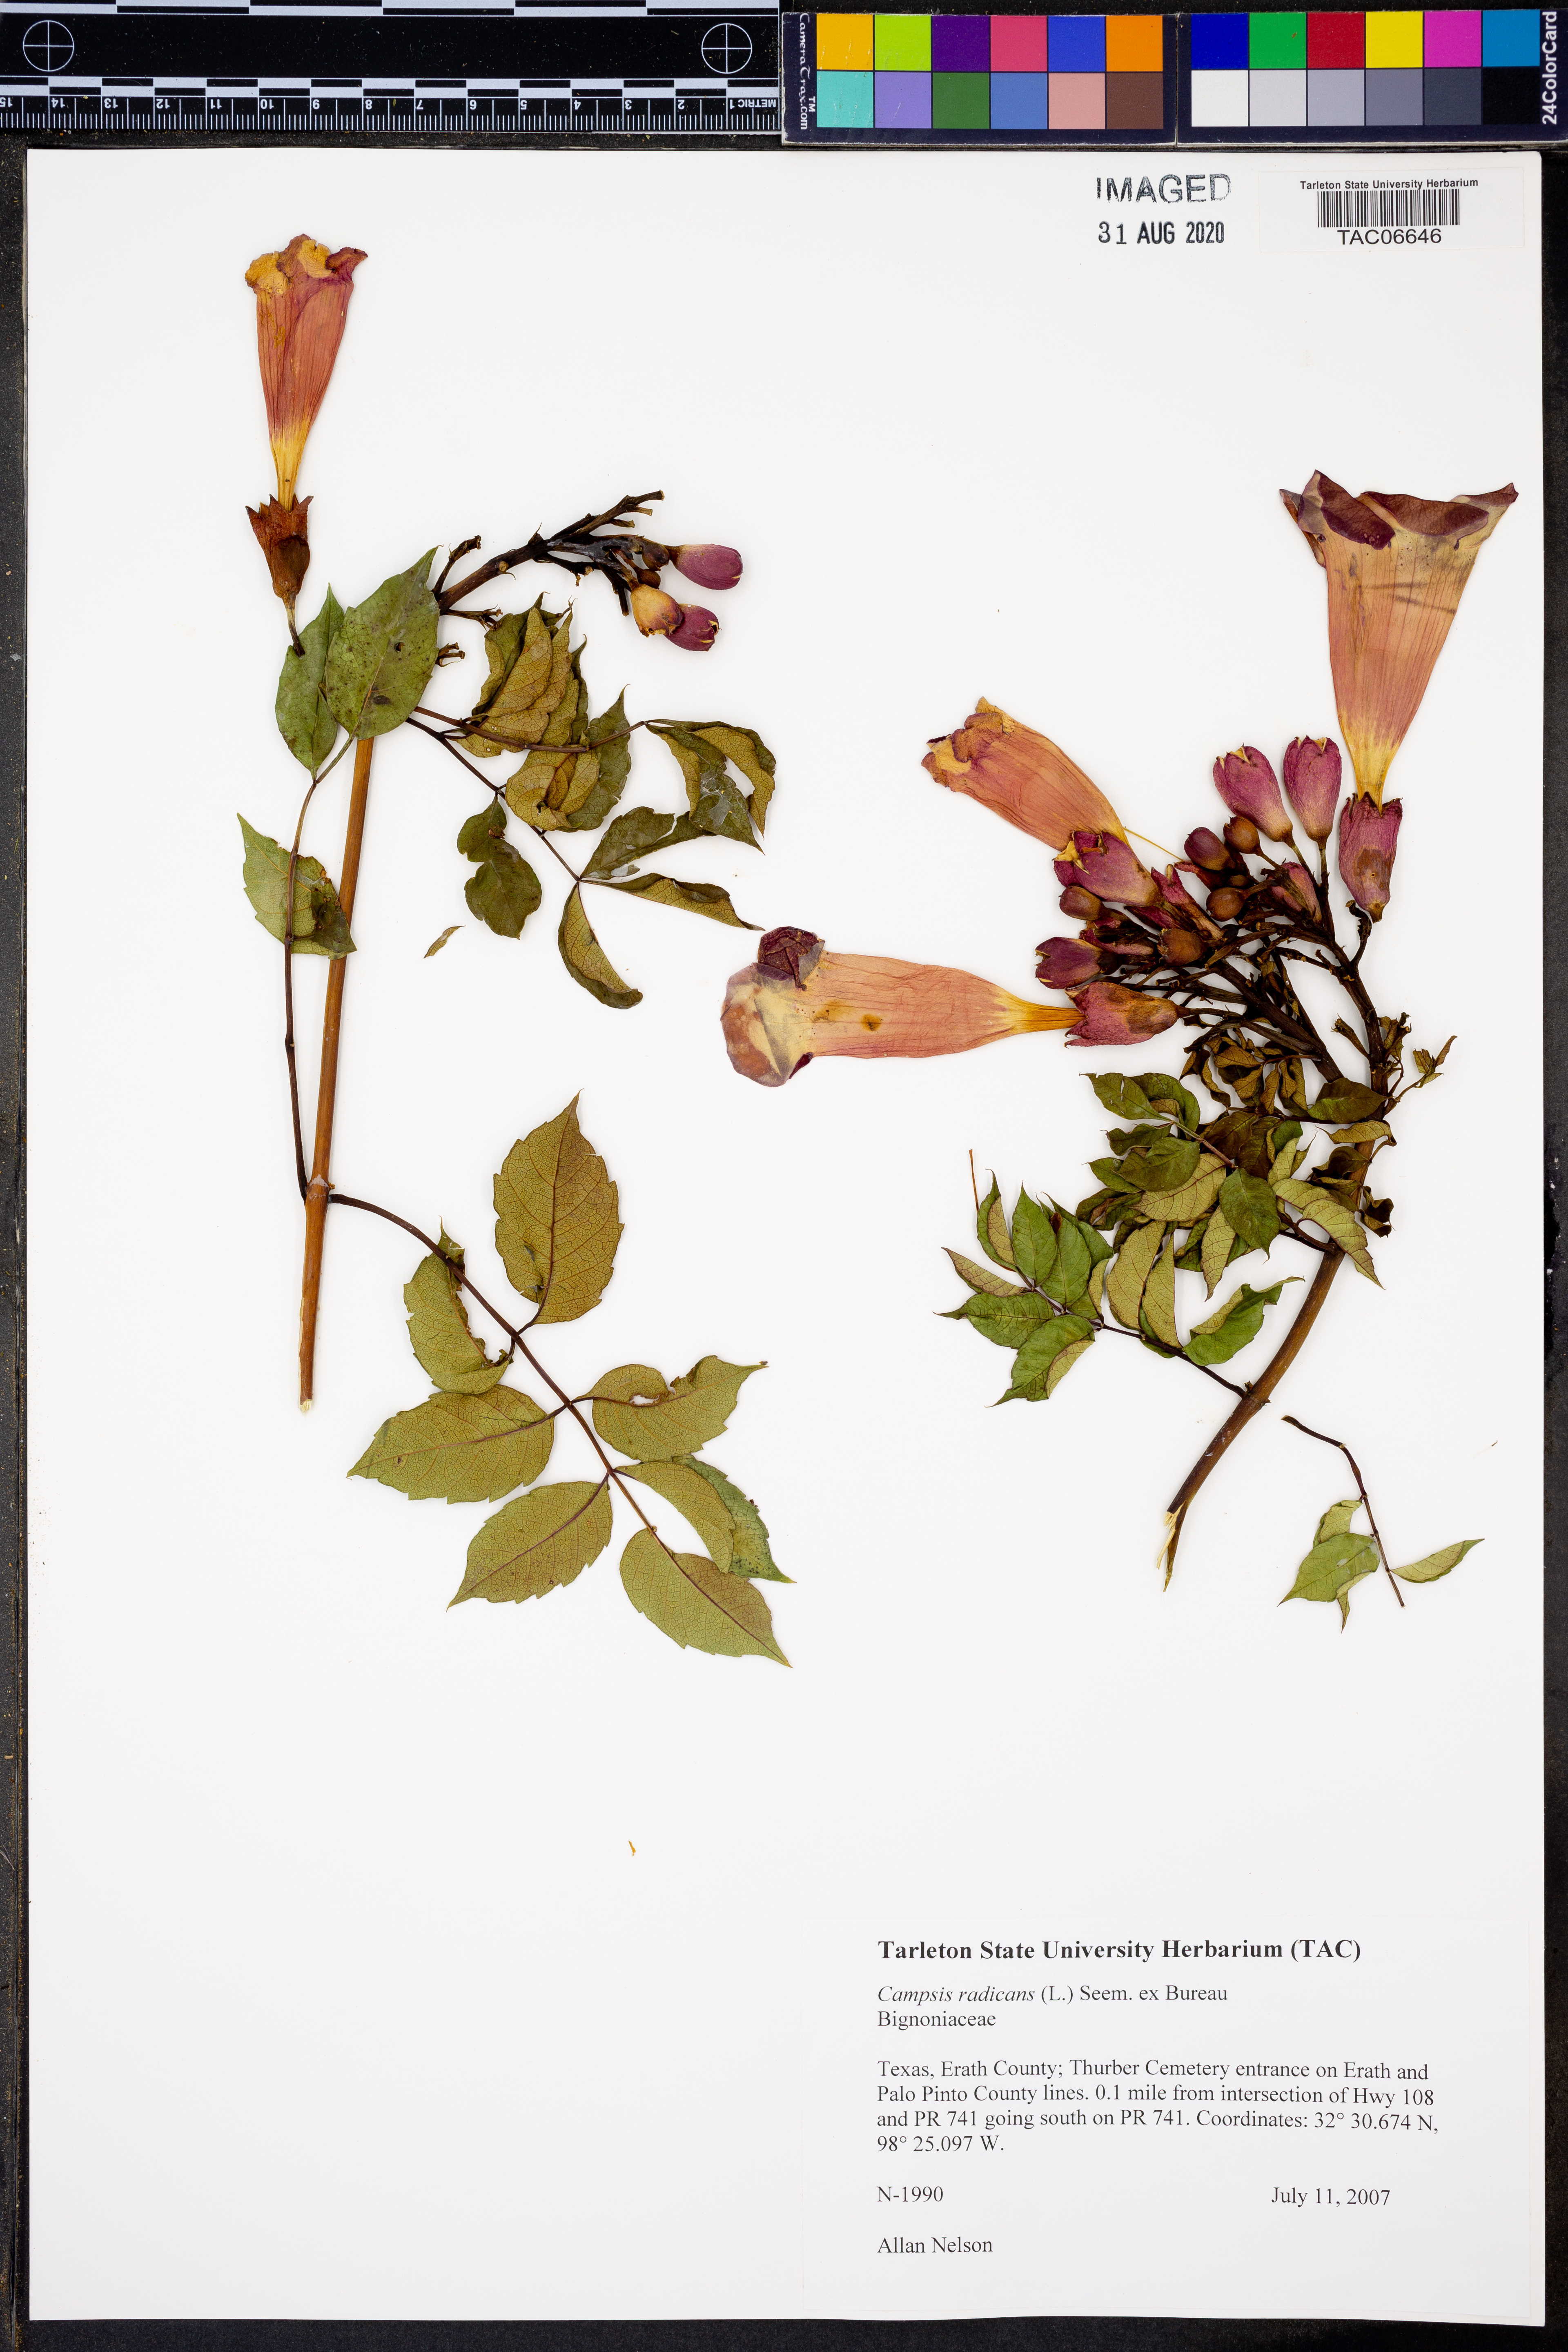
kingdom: Plantae
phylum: Tracheophyta
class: Magnoliopsida
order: Lamiales
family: Bignoniaceae
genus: Campsis
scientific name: Campsis radicans
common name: Trumpet-creeper
